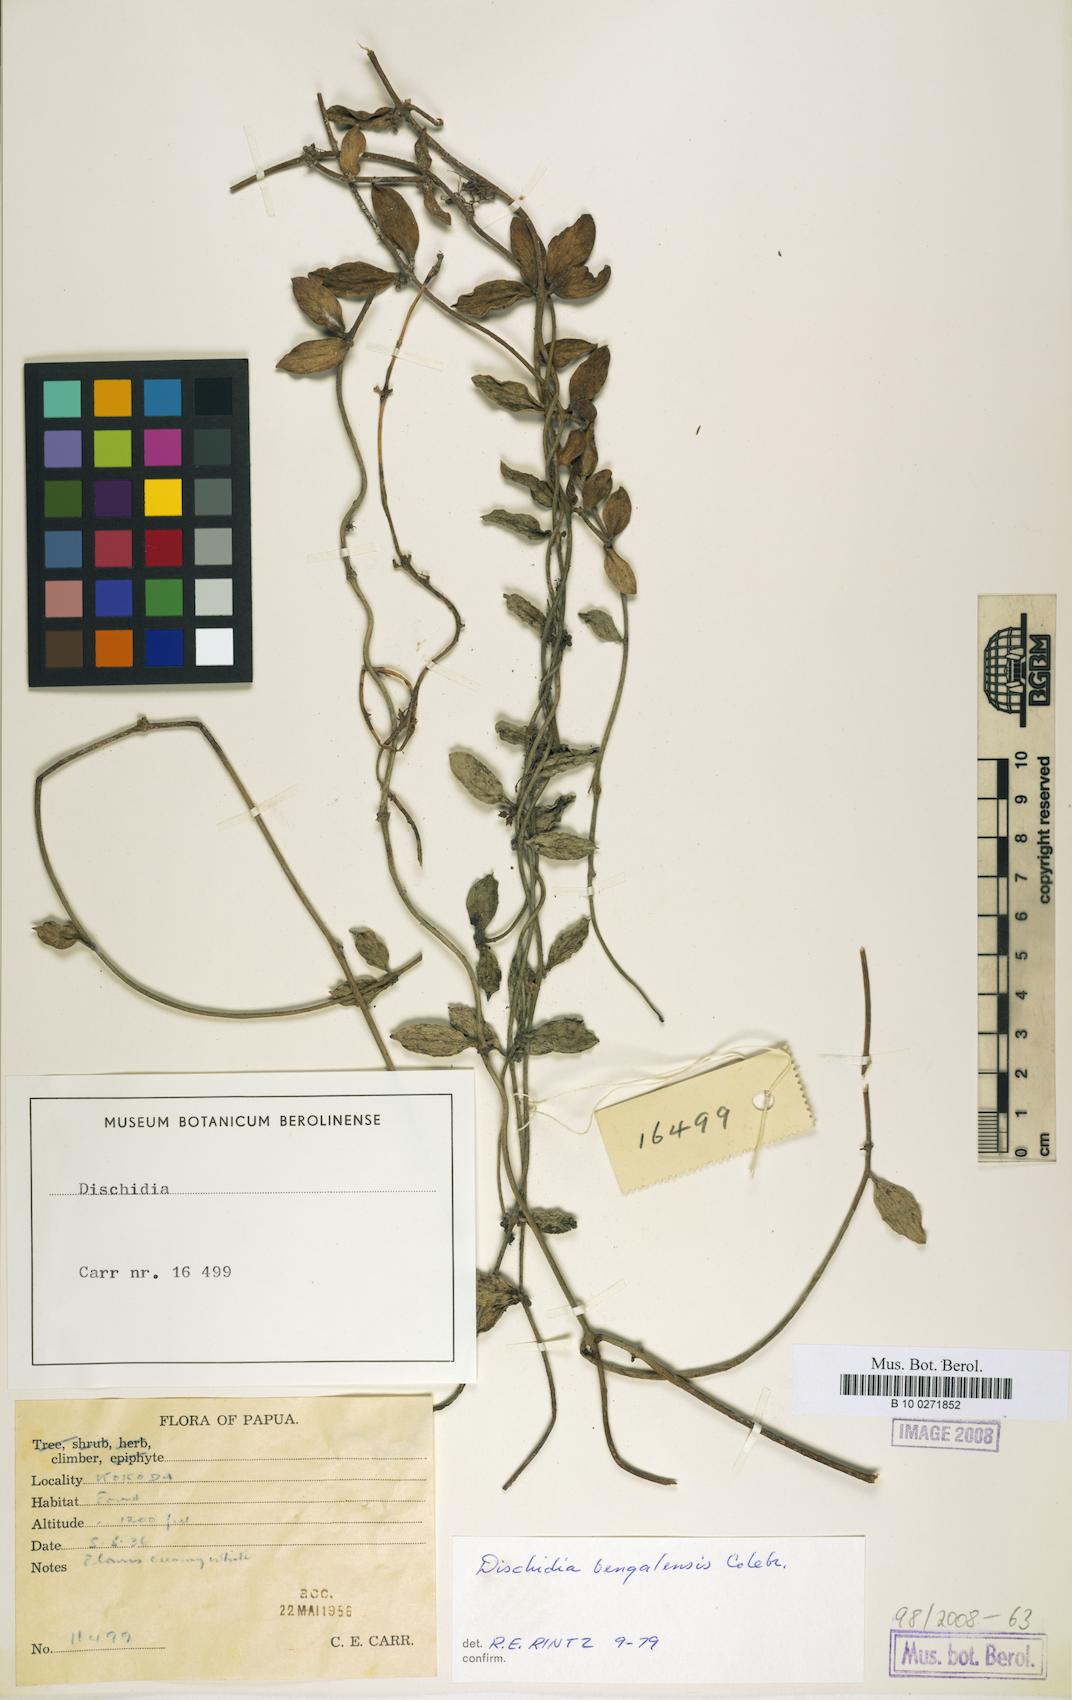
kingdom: Plantae
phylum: Tracheophyta
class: Magnoliopsida
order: Gentianales
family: Apocynaceae
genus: Dischidia
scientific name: Dischidia bengalensis
